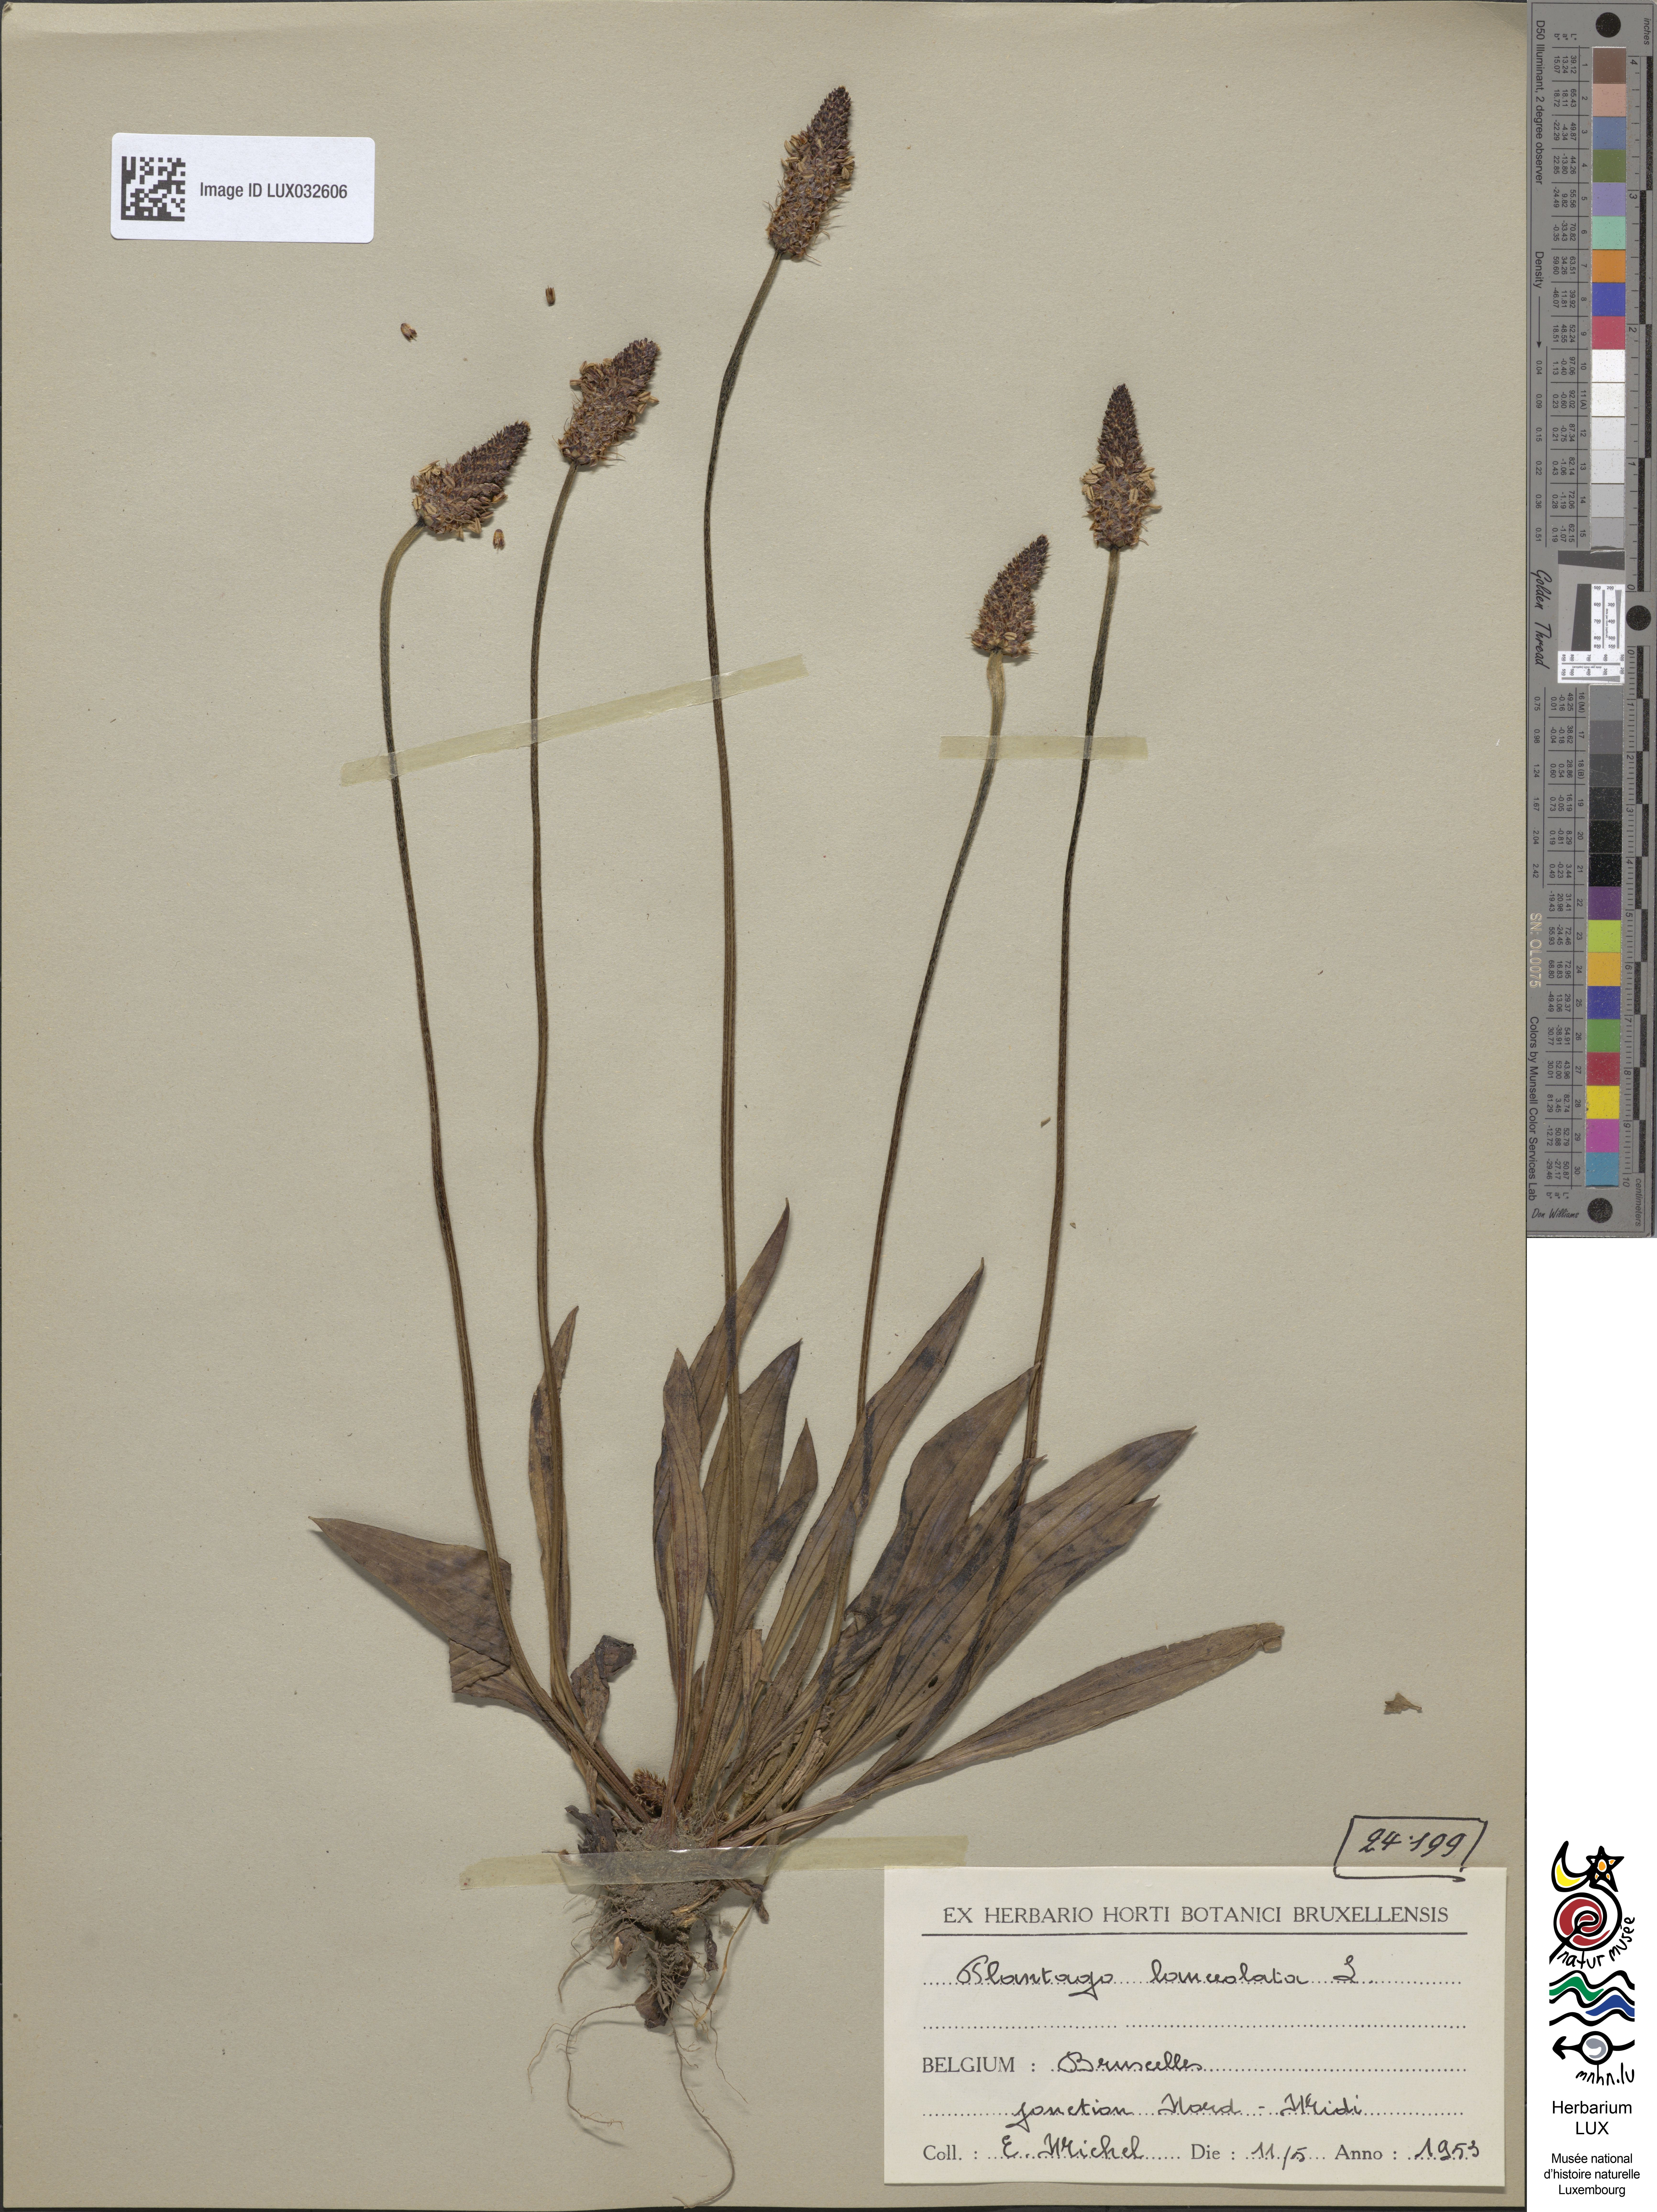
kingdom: Plantae
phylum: Tracheophyta
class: Magnoliopsida
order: Lamiales
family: Plantaginaceae
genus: Plantago
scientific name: Plantago lanceolata
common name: Ribwort plantain
